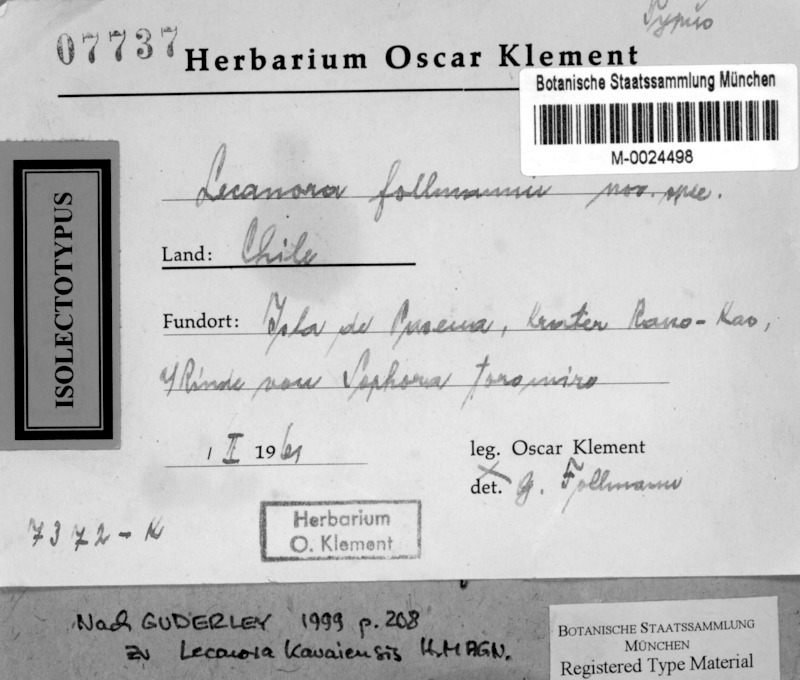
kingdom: Fungi
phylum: Ascomycota
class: Lecanoromycetes
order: Lecanorales
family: Lecanoraceae
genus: Lecanora
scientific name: Lecanora kauaiensis
